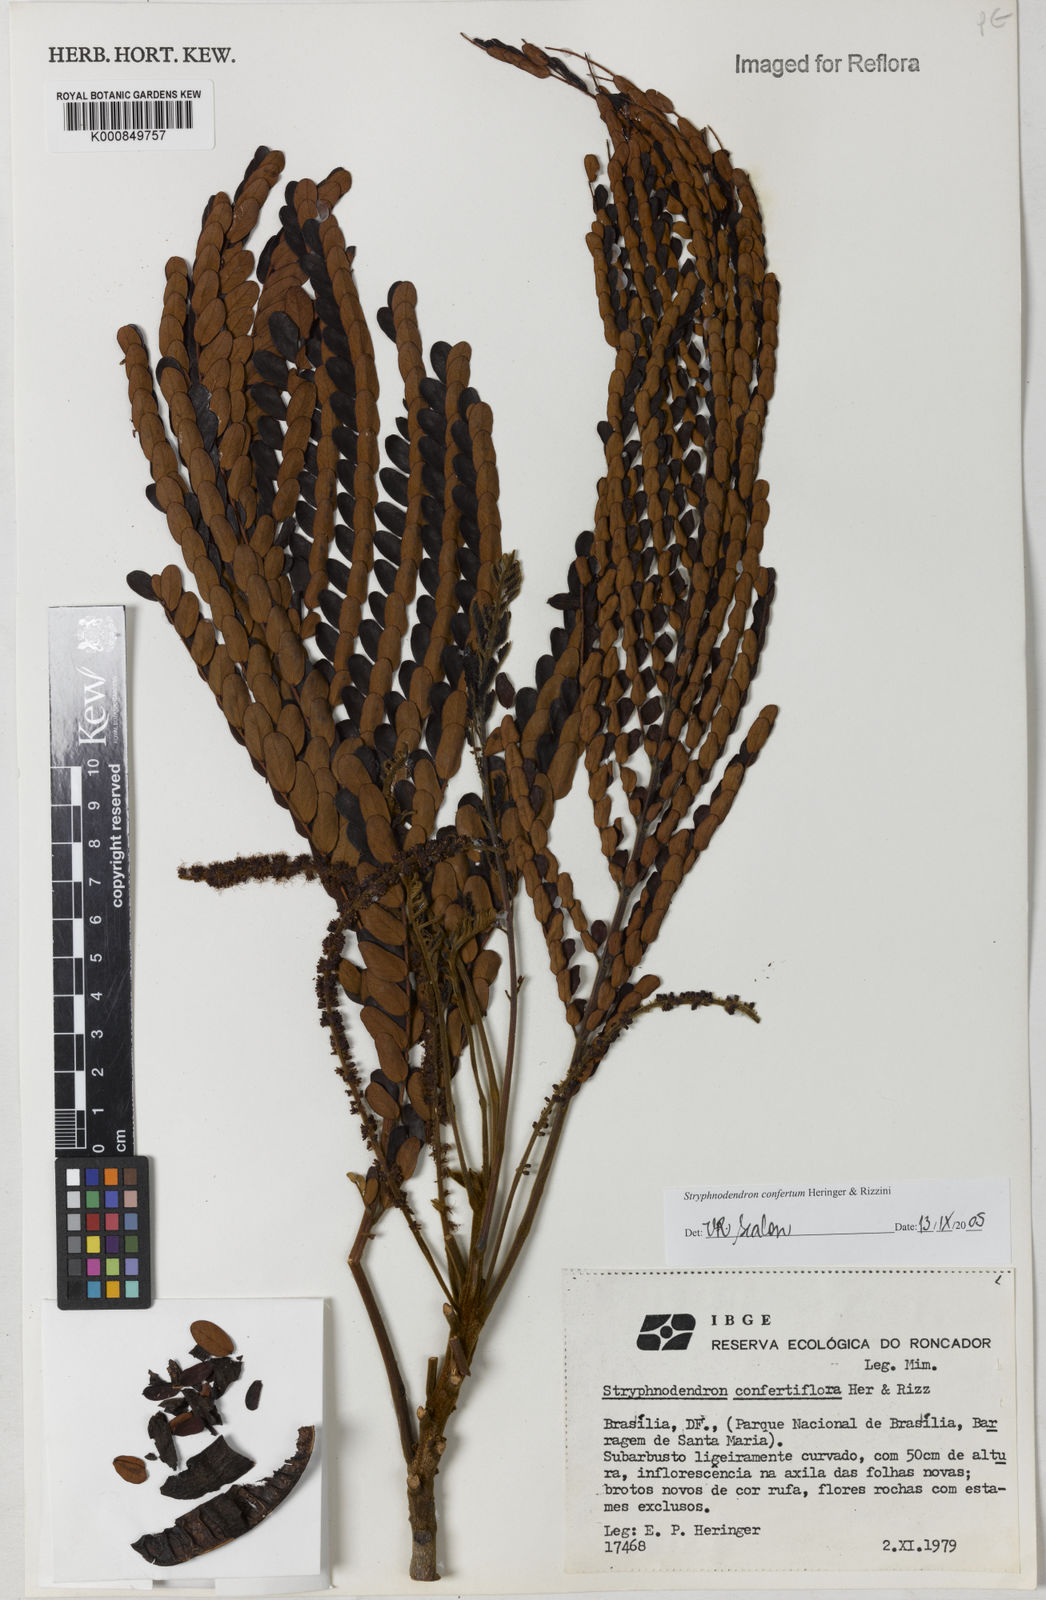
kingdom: Plantae
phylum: Tracheophyta
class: Magnoliopsida
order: Fabales
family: Fabaceae
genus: Stryphnodendron
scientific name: Stryphnodendron confertum
